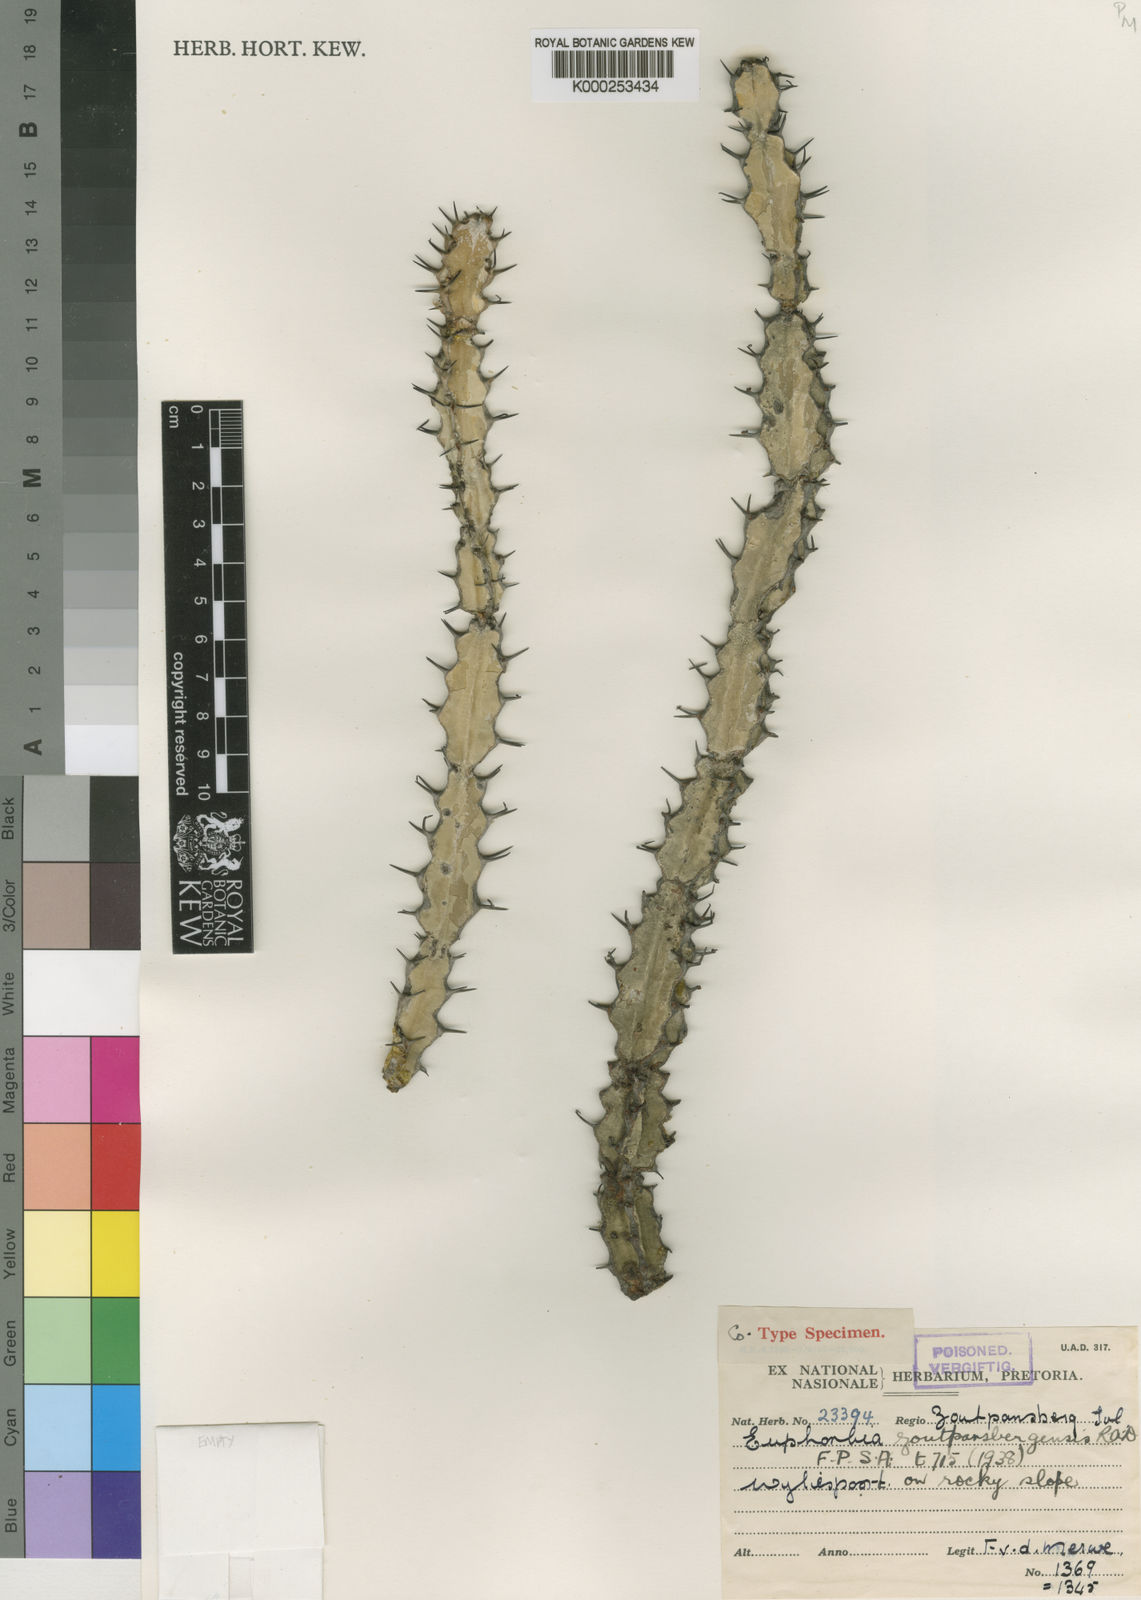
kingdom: Plantae
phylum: Tracheophyta
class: Magnoliopsida
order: Malpighiales
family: Euphorbiaceae
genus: Euphorbia
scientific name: Euphorbia zoutpansbergensis
